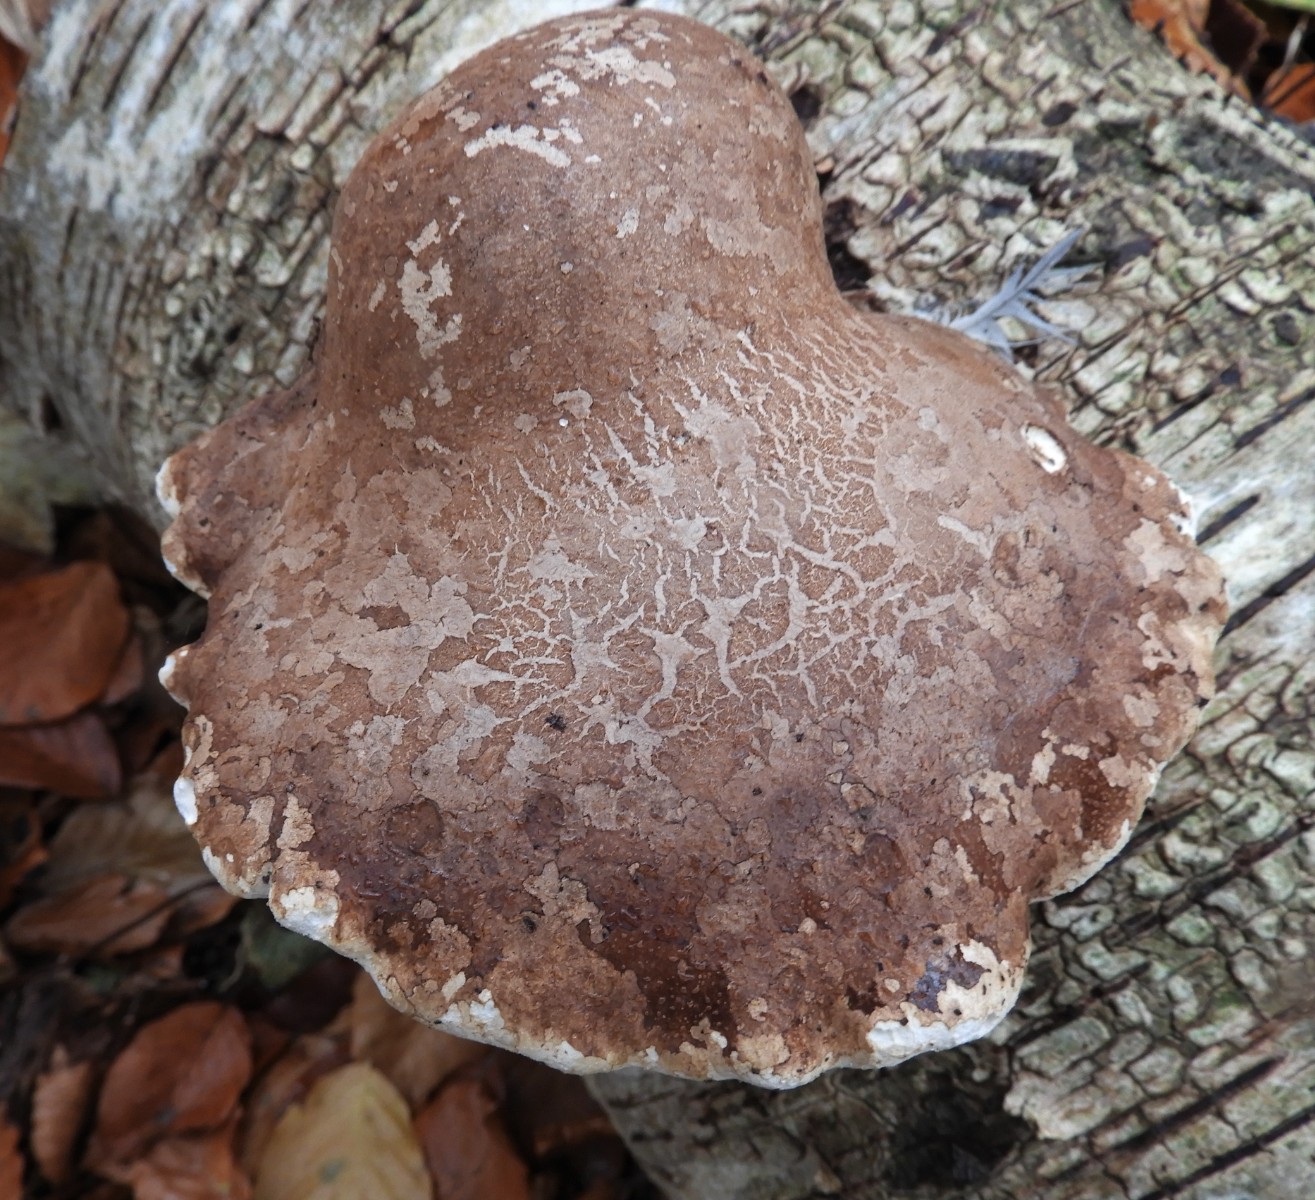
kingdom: Fungi
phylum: Basidiomycota
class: Agaricomycetes
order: Polyporales
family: Fomitopsidaceae
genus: Fomitopsis
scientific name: Fomitopsis betulina
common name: birkeporesvamp
